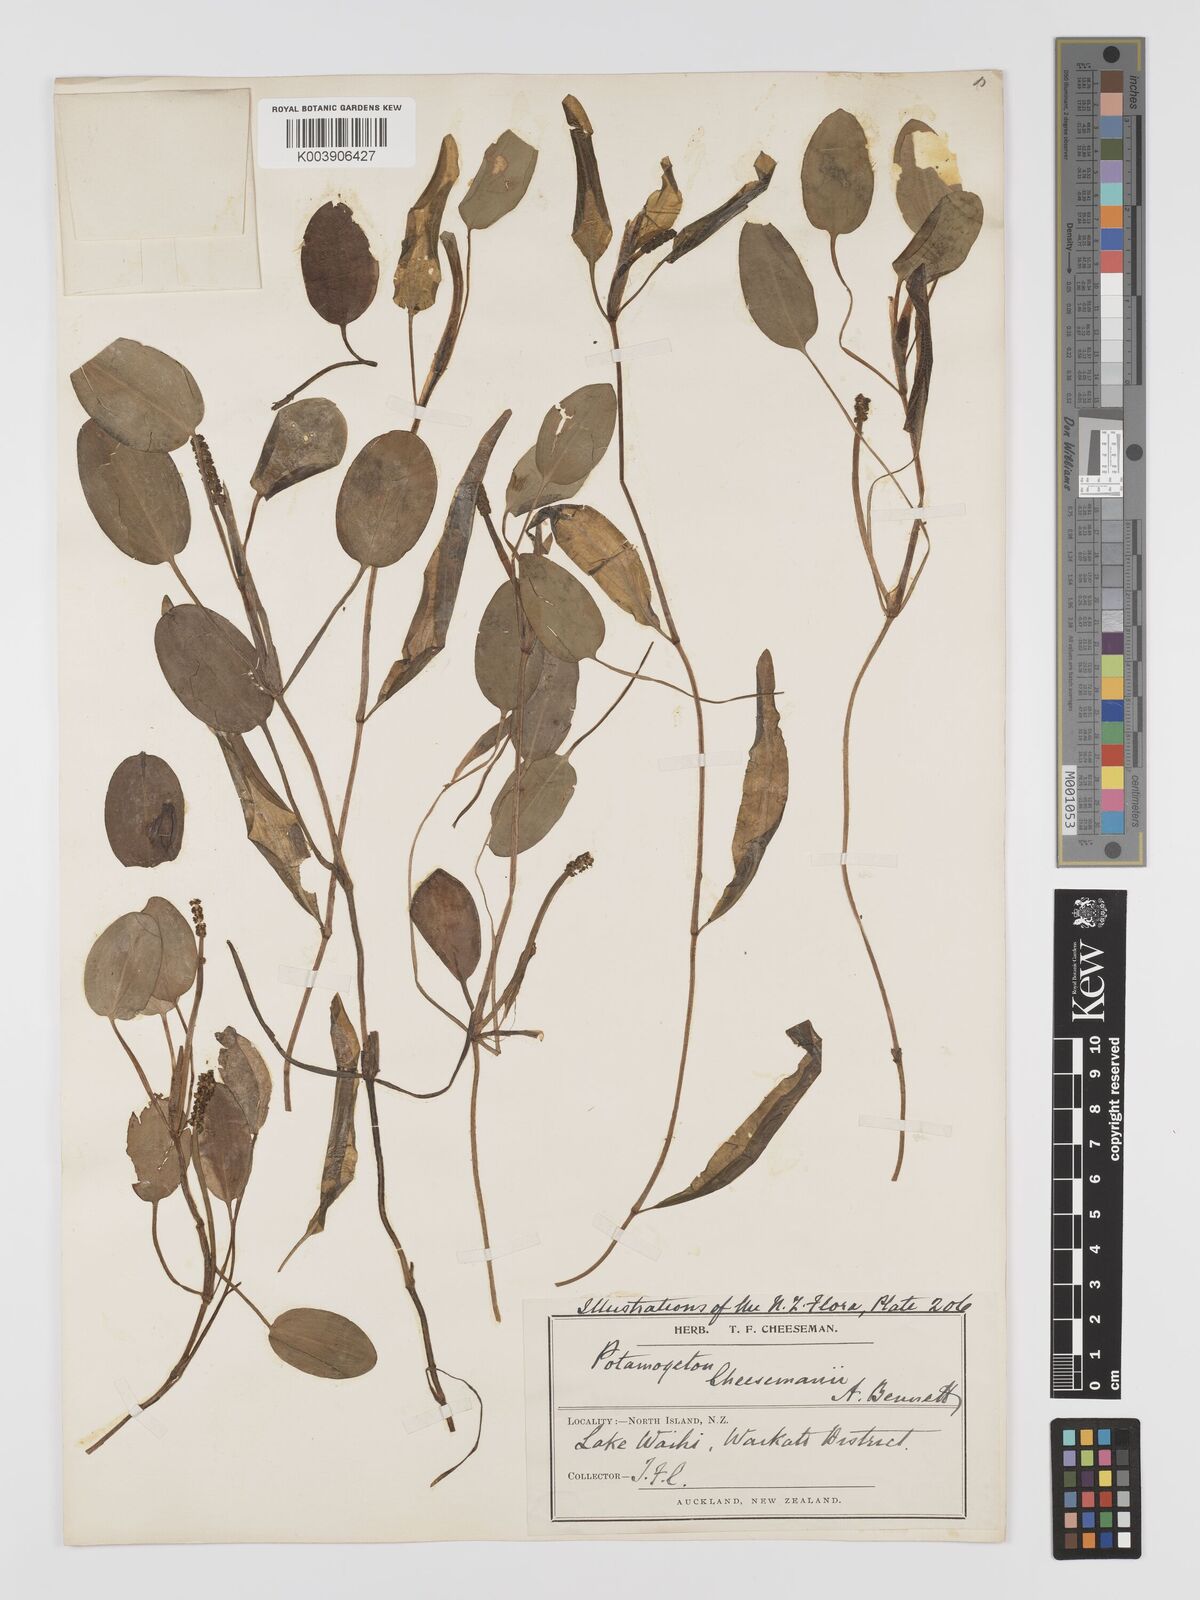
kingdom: Plantae
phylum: Tracheophyta
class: Liliopsida
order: Alismatales
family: Potamogetonaceae
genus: Potamogeton
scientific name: Potamogeton cheesemanii
